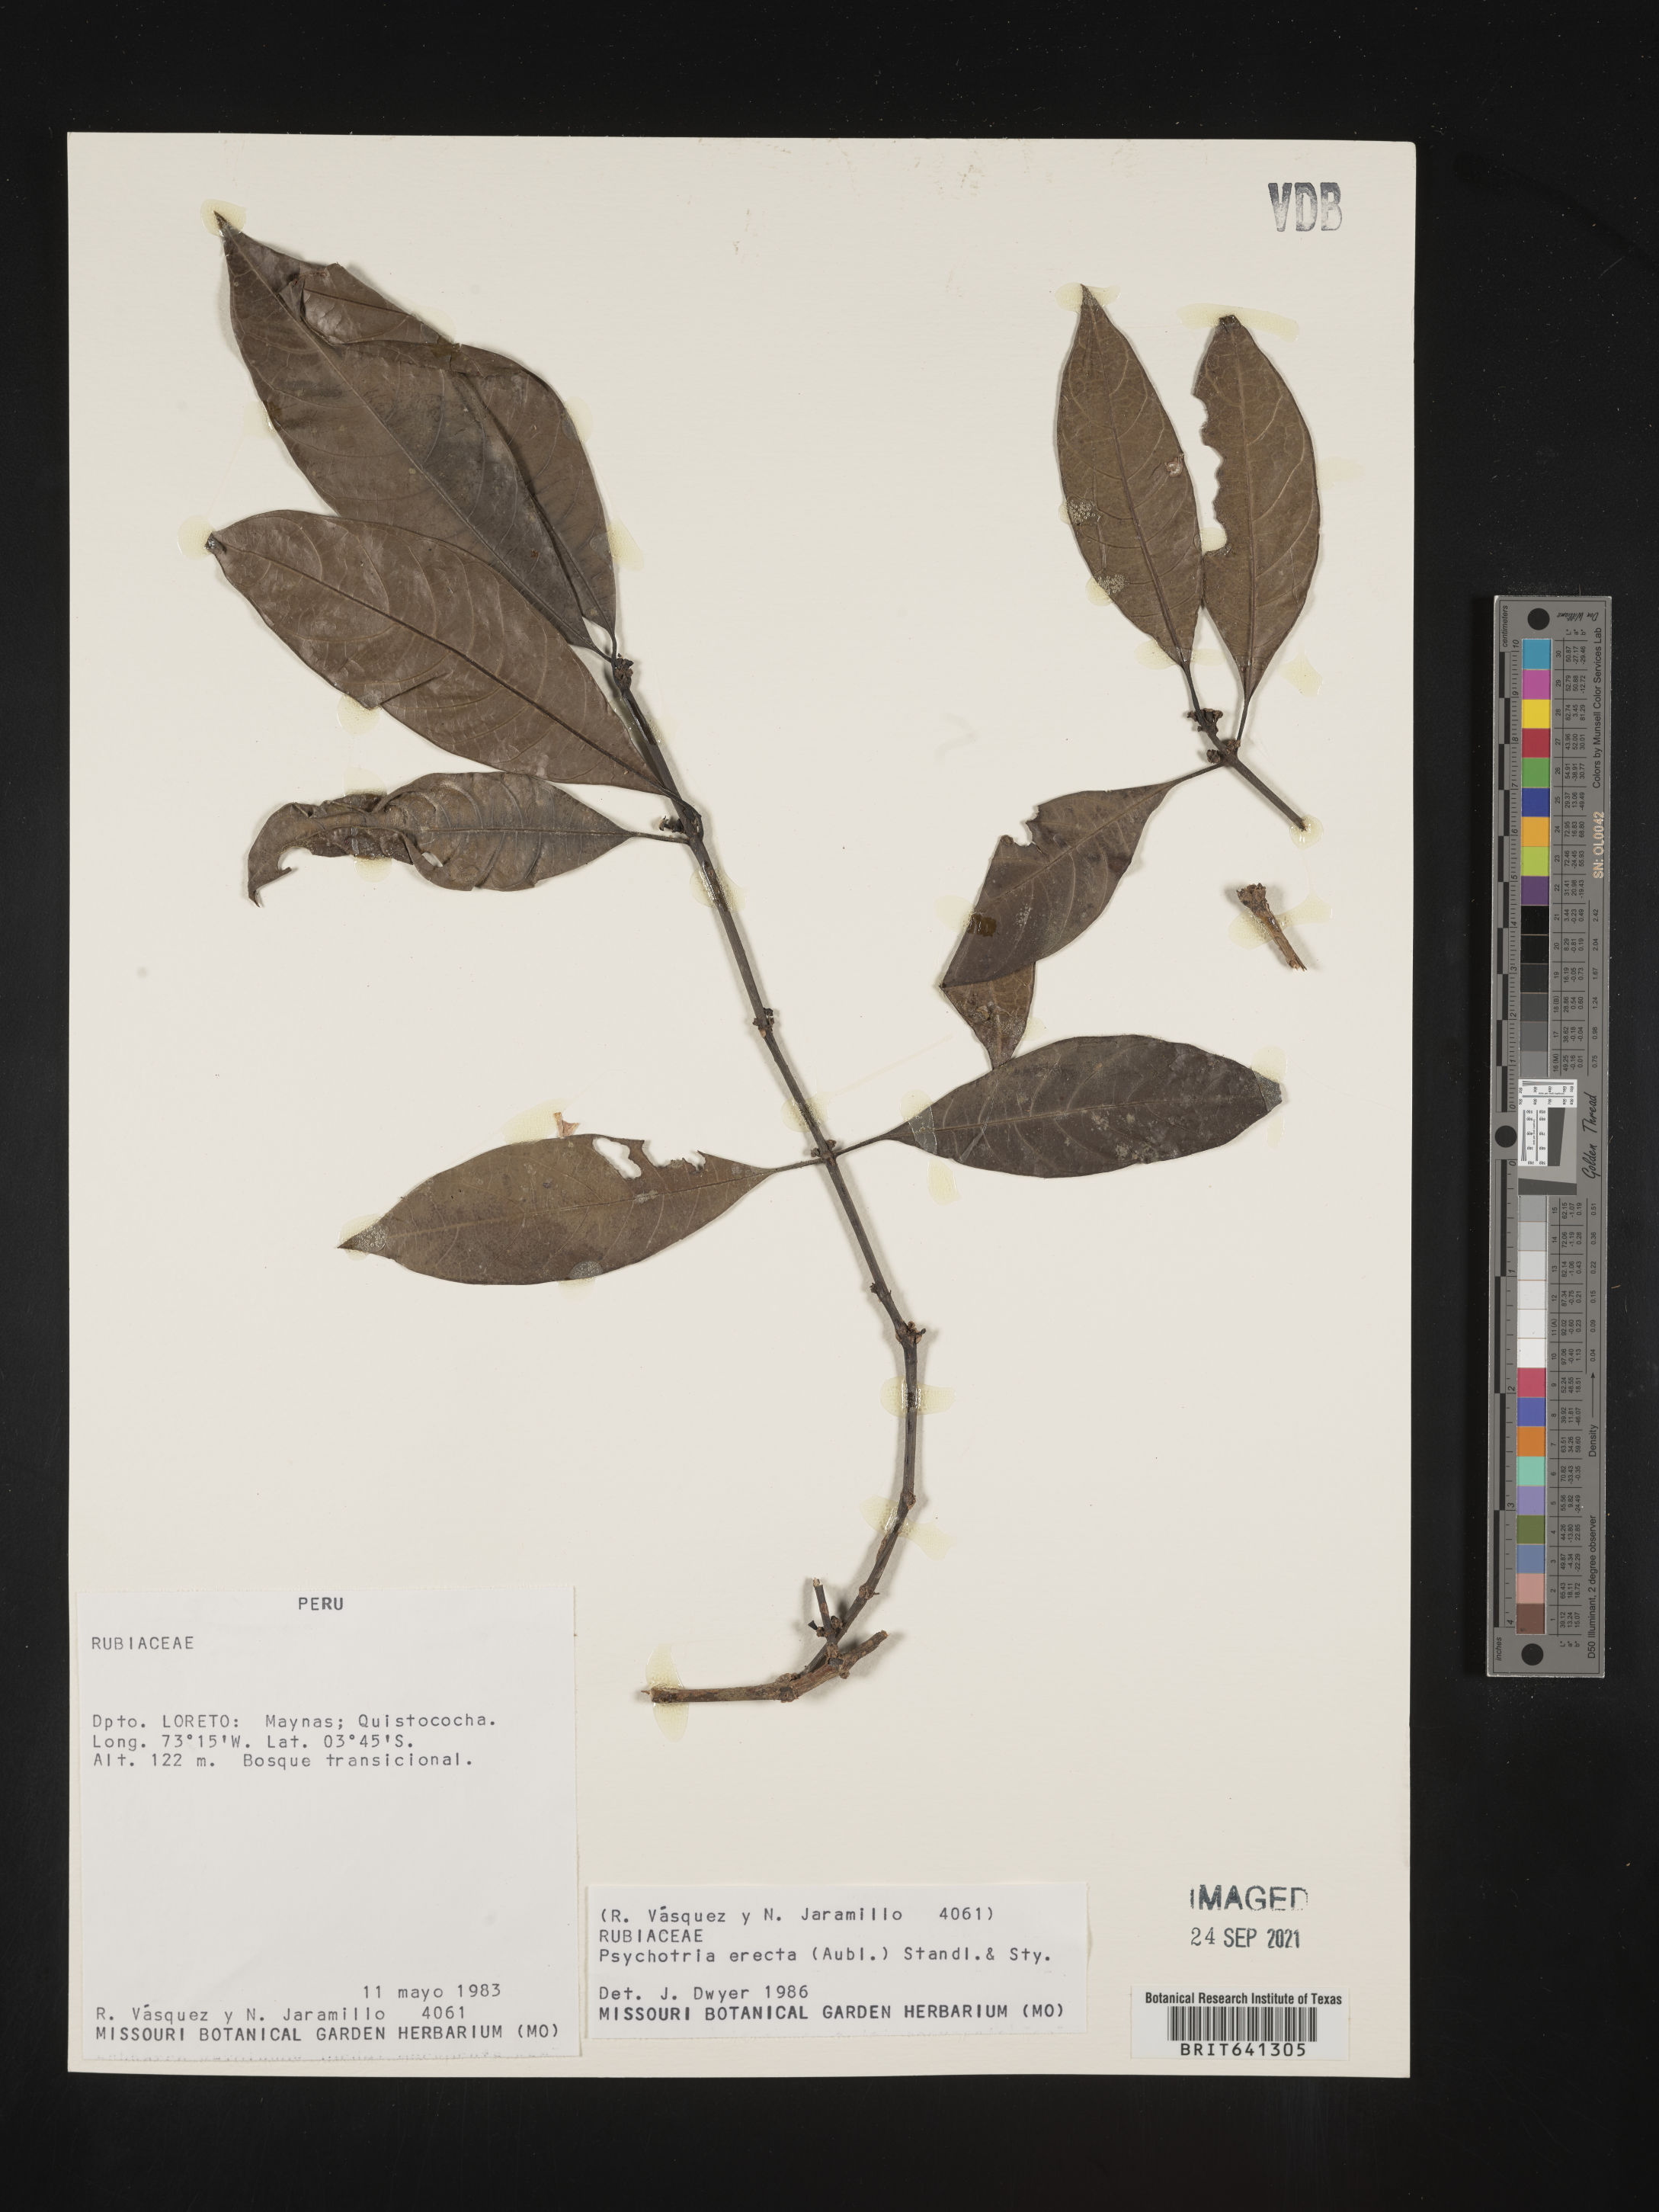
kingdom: Plantae
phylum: Tracheophyta
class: Magnoliopsida
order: Gentianales
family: Rubiaceae
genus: Psychotria
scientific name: Psychotria
